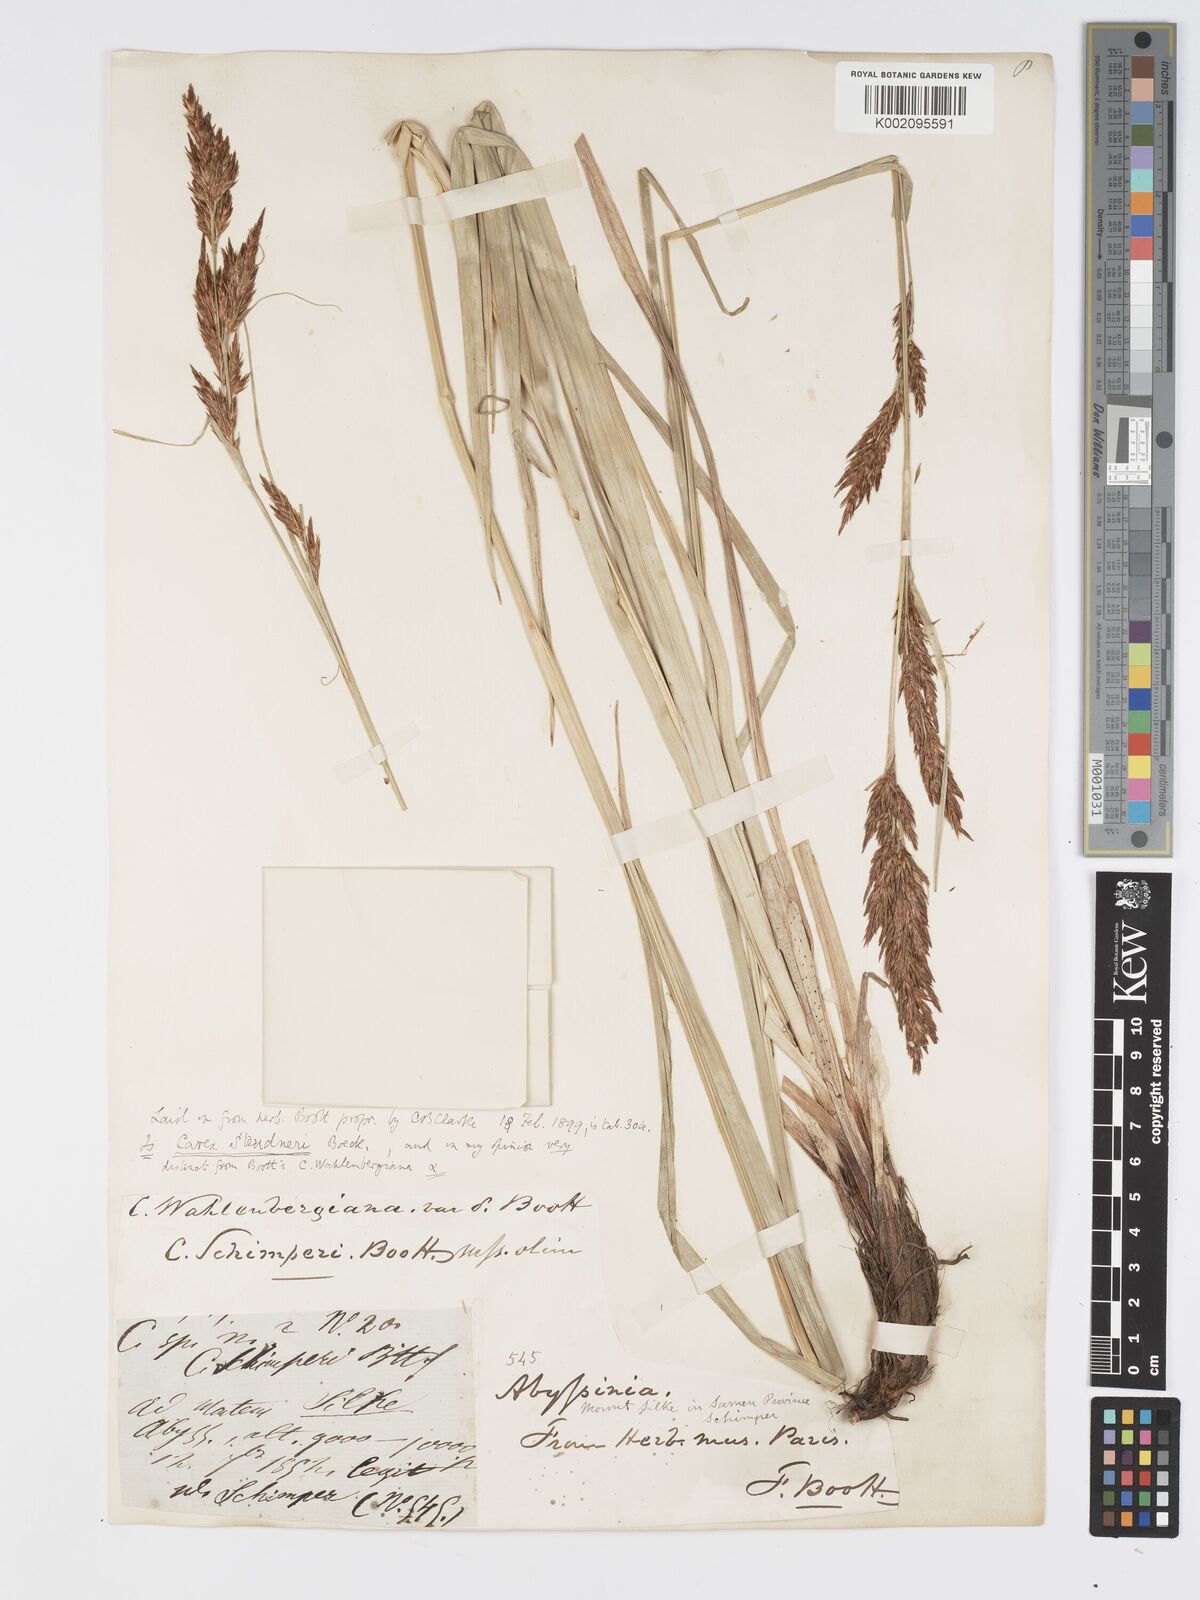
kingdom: Plantae
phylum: Tracheophyta
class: Liliopsida
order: Poales
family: Cyperaceae
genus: Carex
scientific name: Carex steudneri
